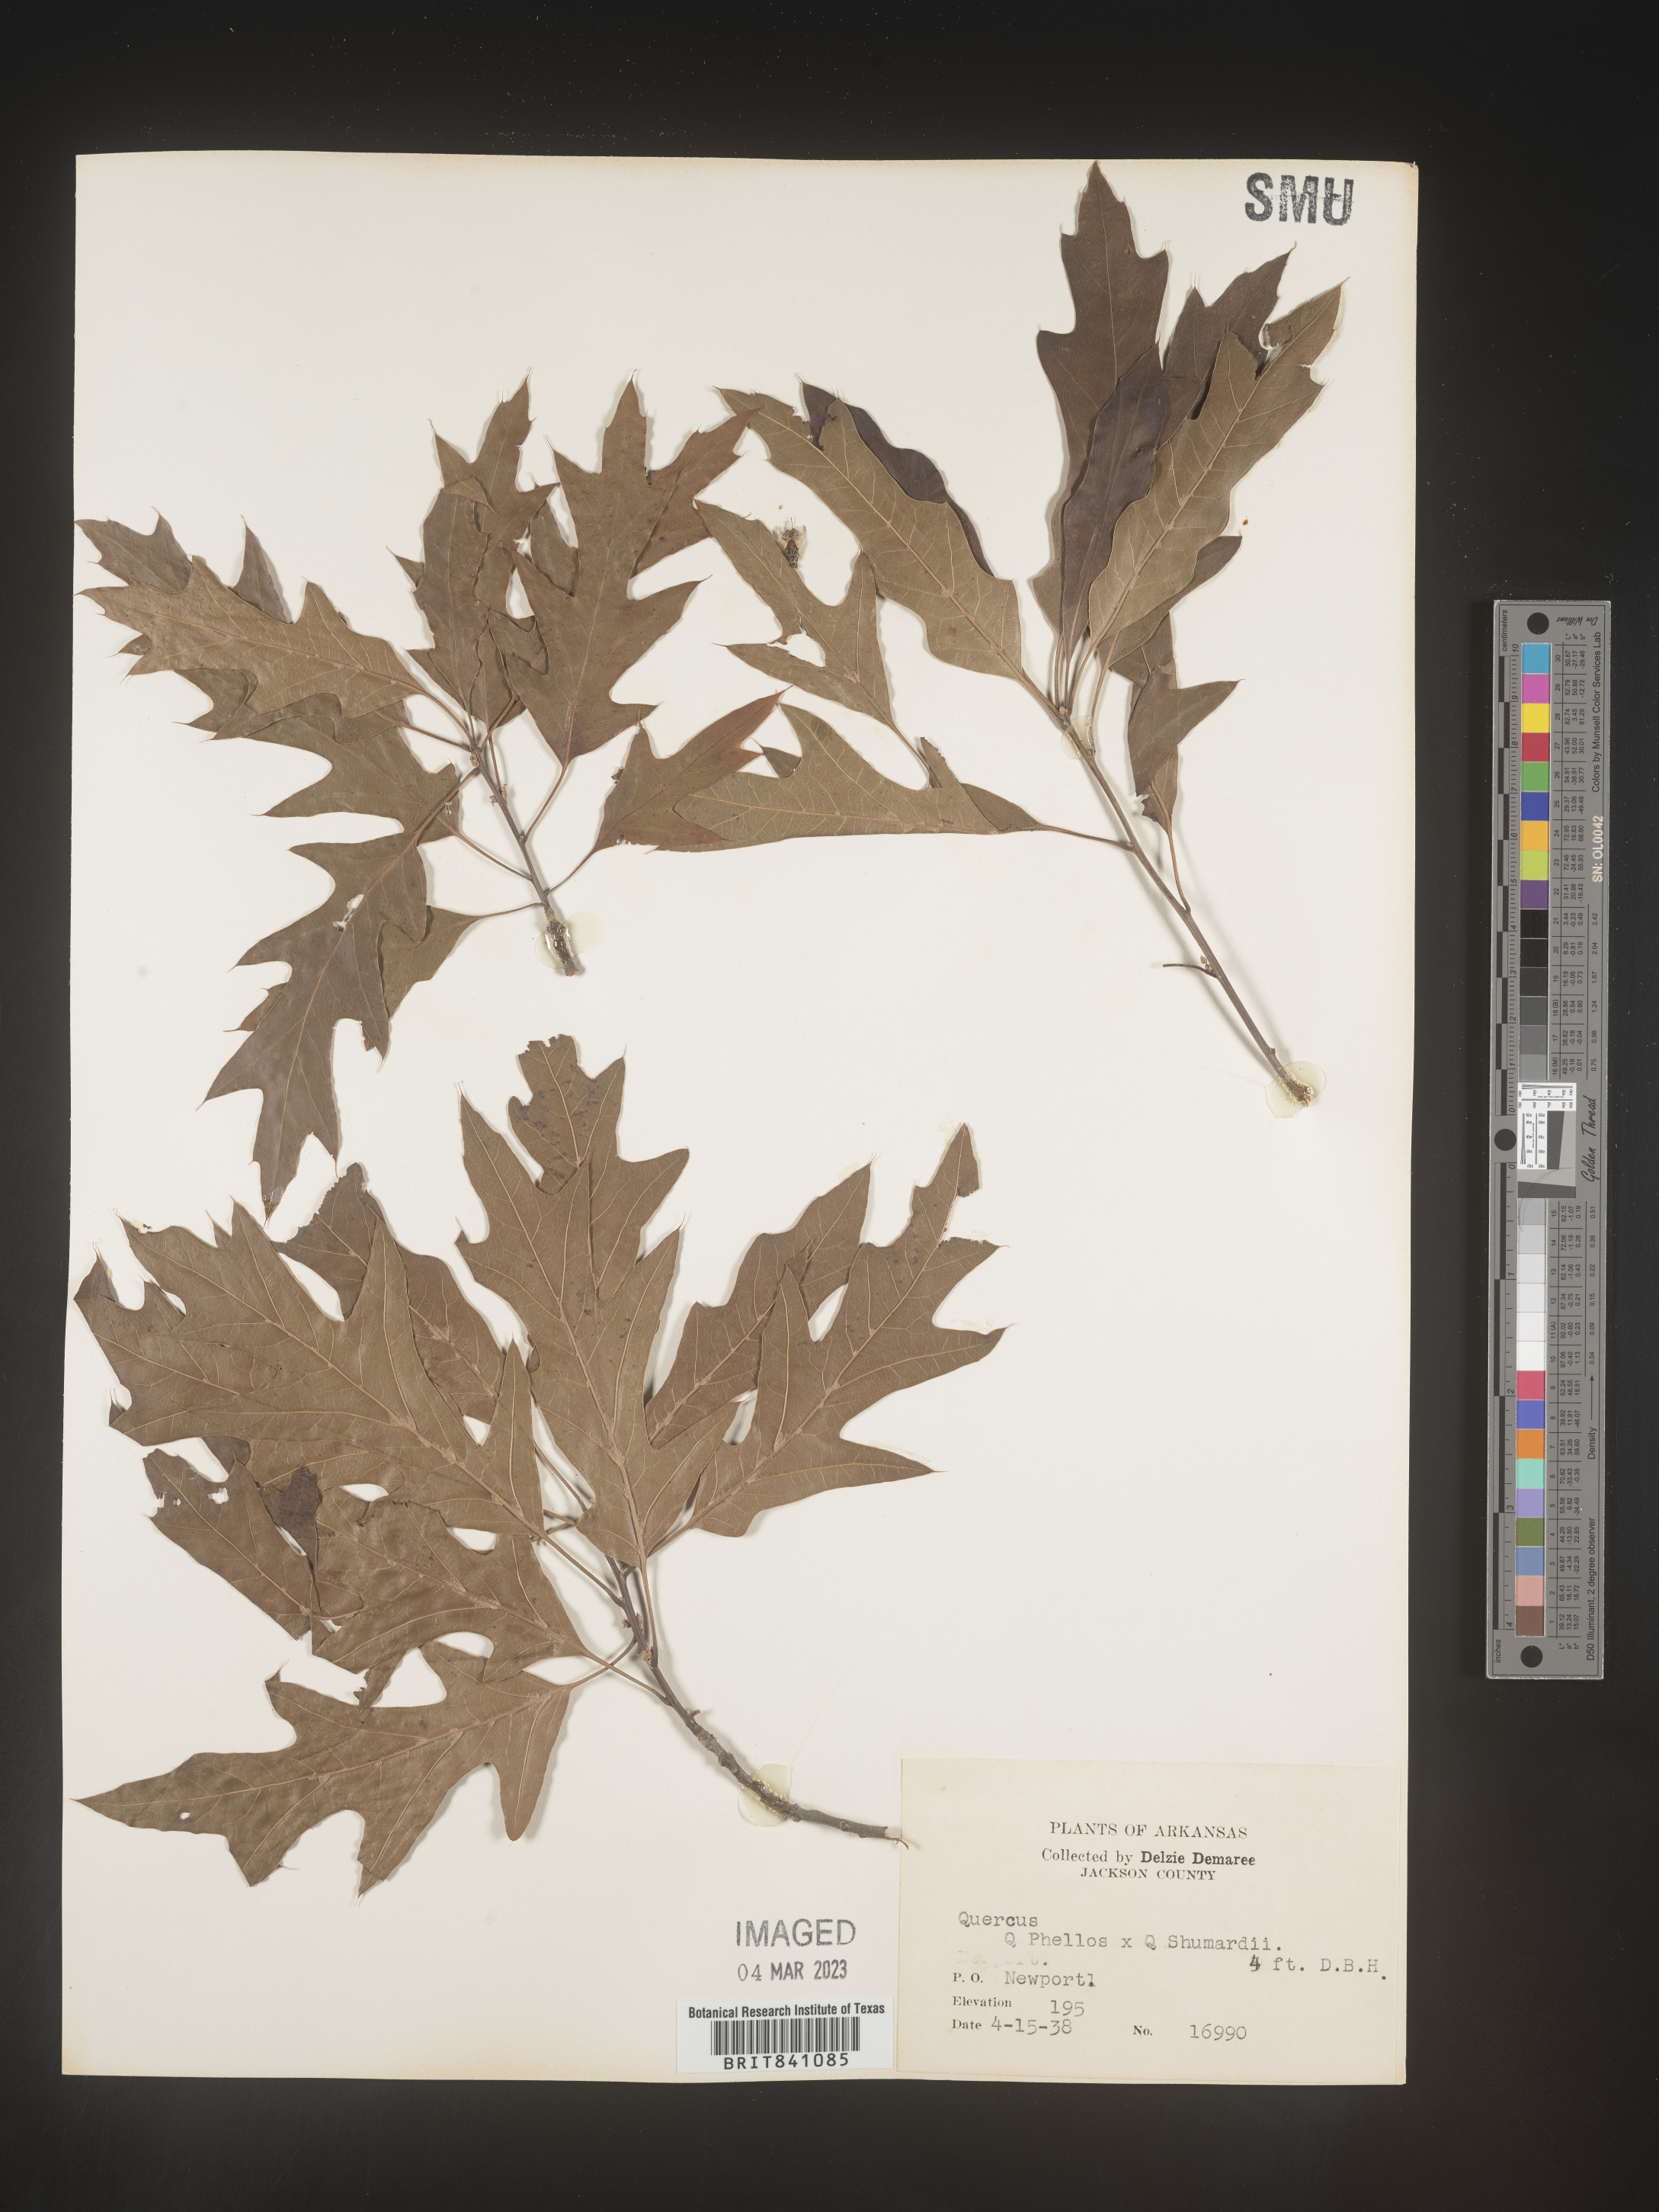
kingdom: Plantae
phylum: Tracheophyta
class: Magnoliopsida
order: Fagales
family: Fagaceae
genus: Quercus
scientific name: Quercus phellos
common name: Willow oak
